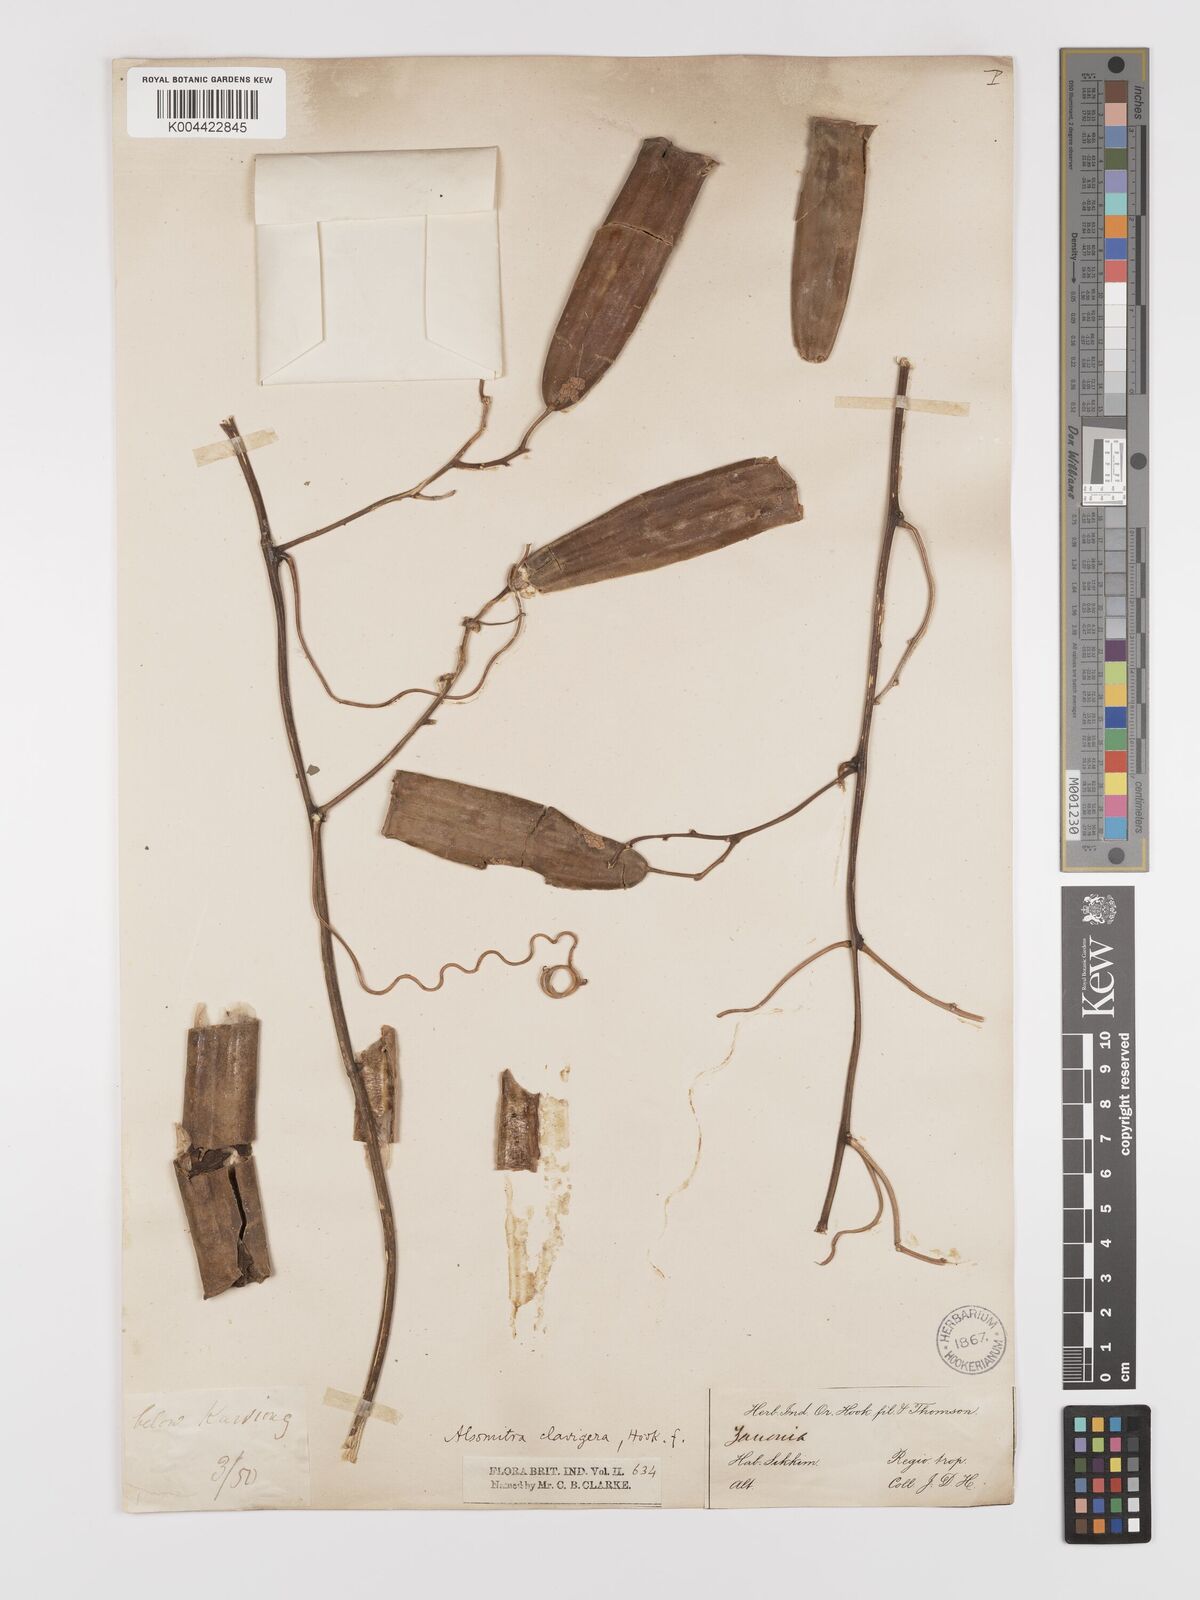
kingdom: Plantae
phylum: Tracheophyta
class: Magnoliopsida
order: Cucurbitales
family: Cucurbitaceae
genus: Neoalsomitra
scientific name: Neoalsomitra
